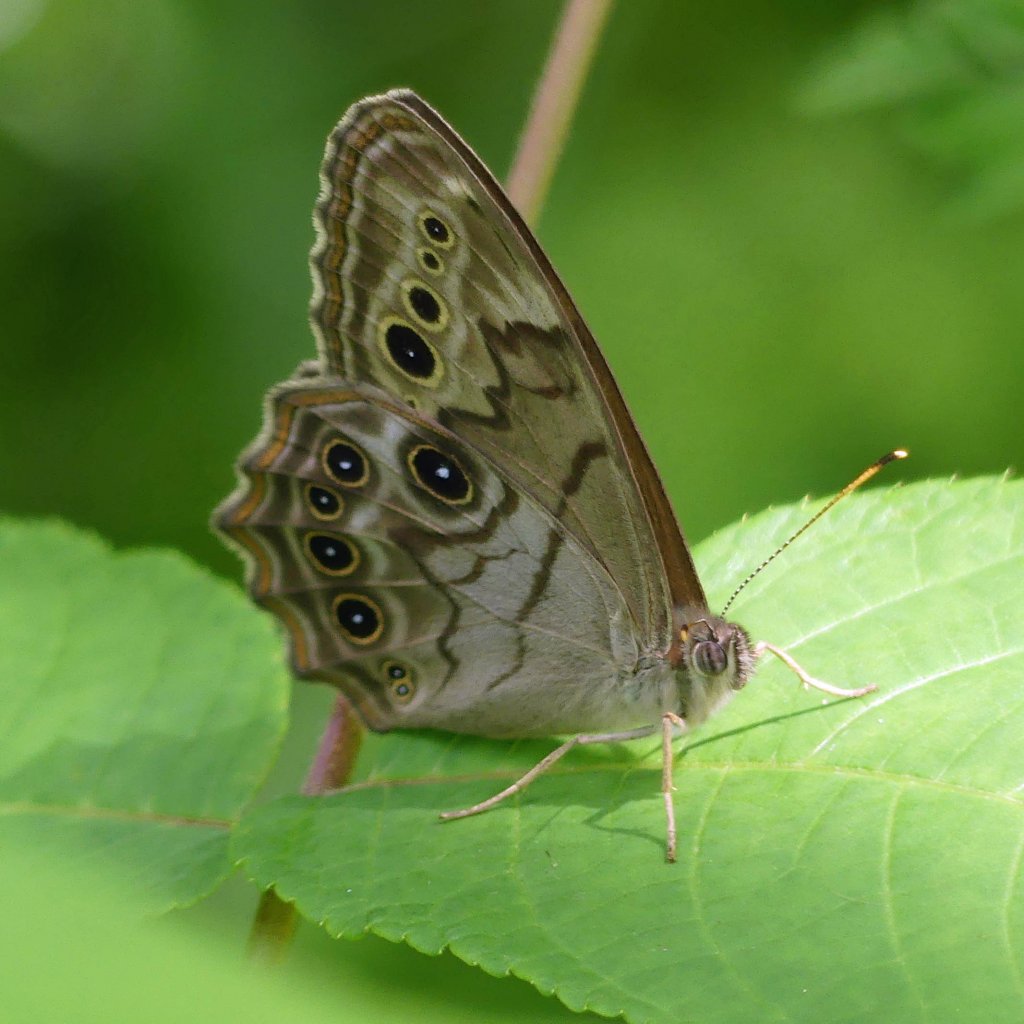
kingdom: Animalia
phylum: Arthropoda
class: Insecta
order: Lepidoptera
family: Nymphalidae
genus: Lethe
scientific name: Lethe anthedon
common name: Northern Pearly-Eye
